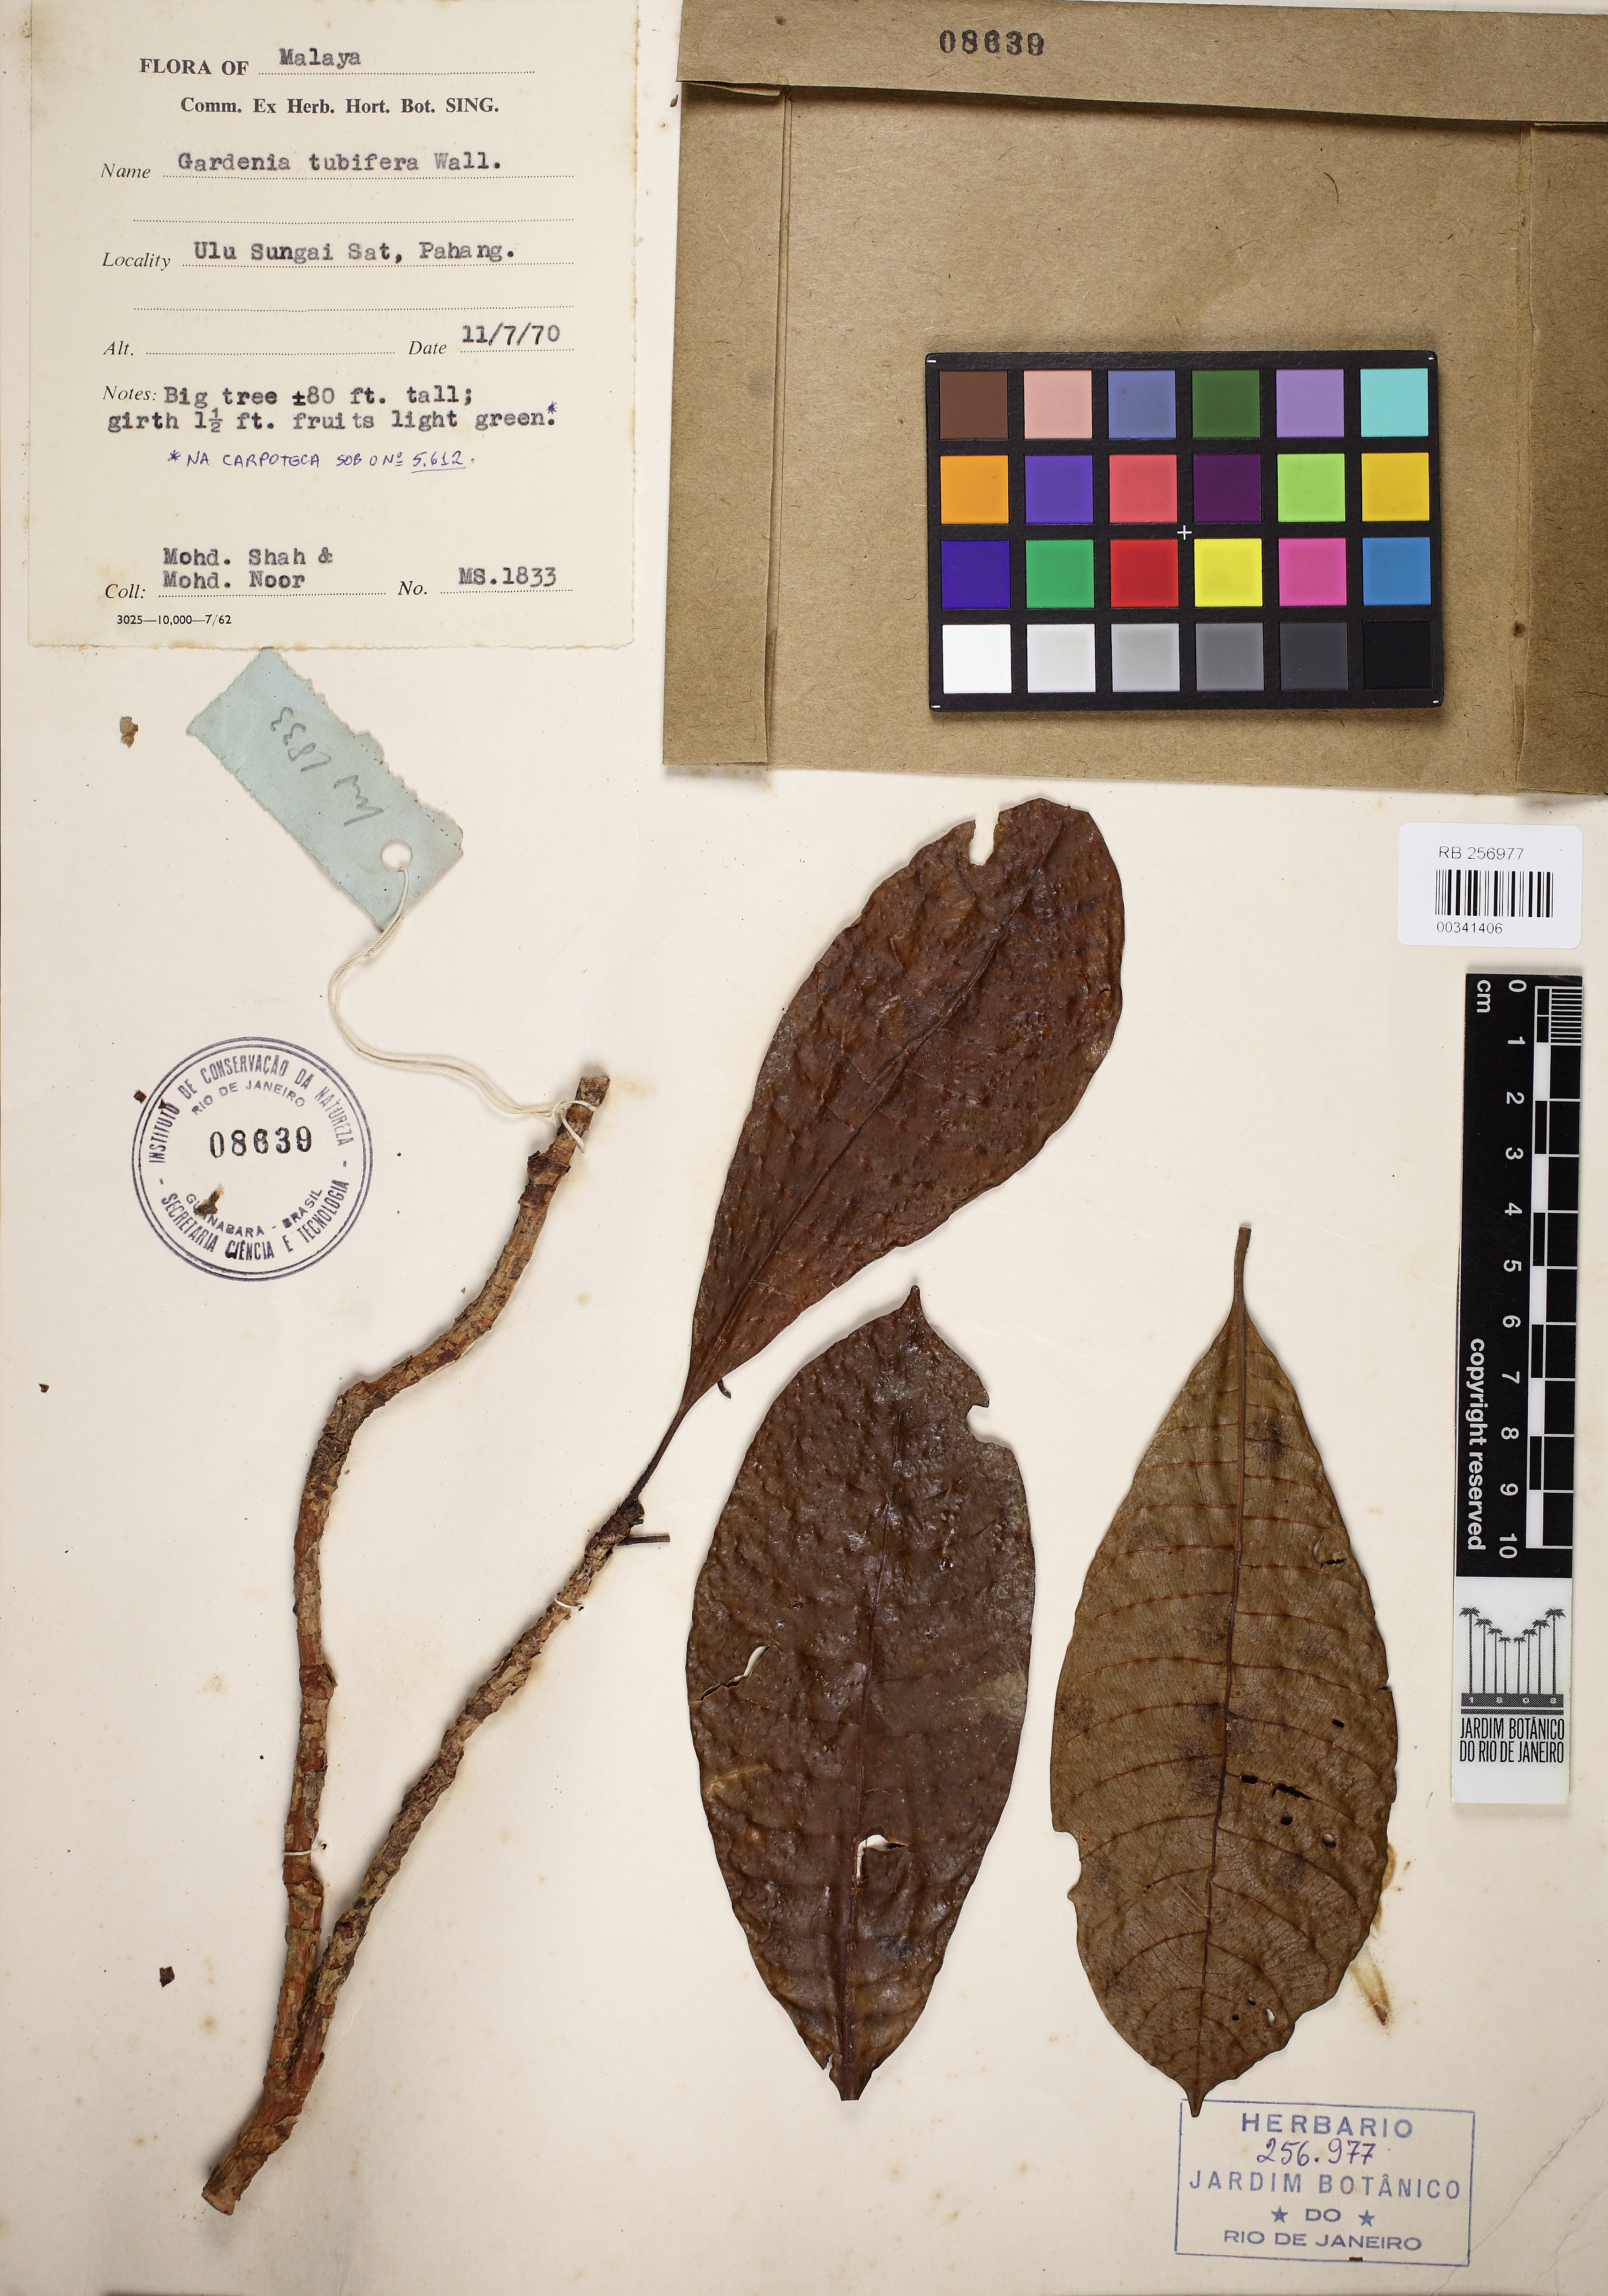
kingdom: Plantae
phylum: Tracheophyta
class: Magnoliopsida
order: Gentianales
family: Rubiaceae
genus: Gardenia
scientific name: Gardenia tubifera
